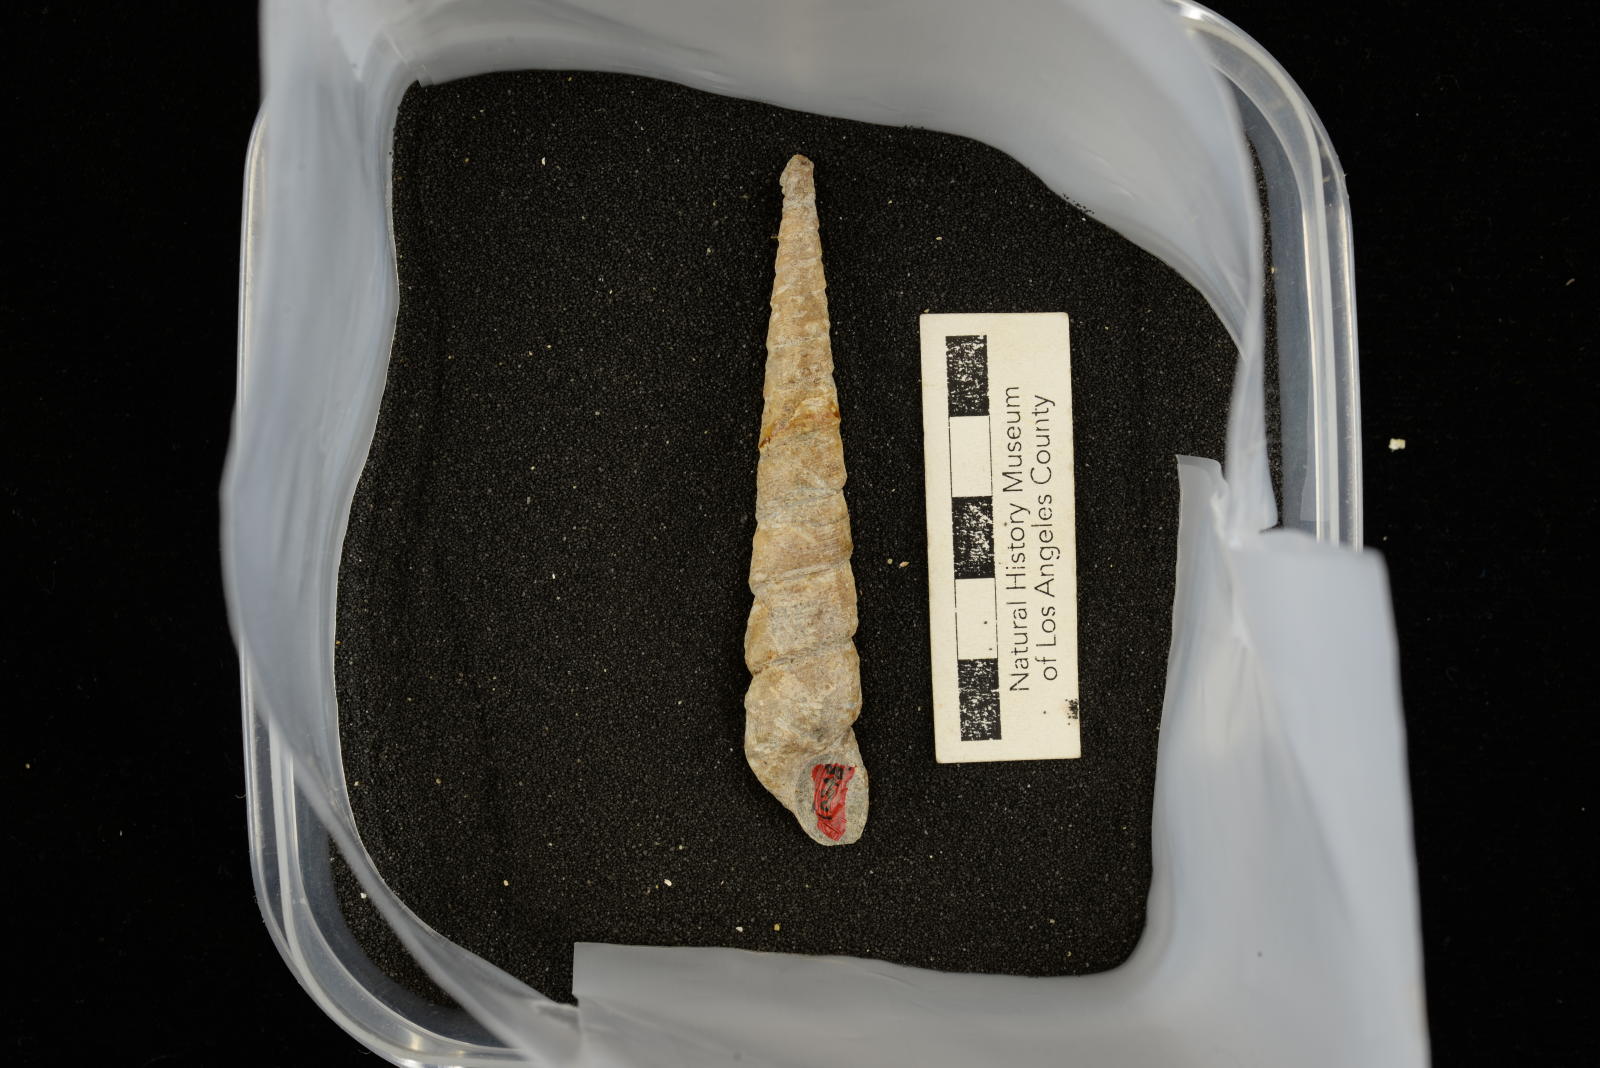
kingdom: Animalia
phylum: Mollusca
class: Gastropoda
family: Turritellidae
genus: Turritella
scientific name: Turritella chaneyi
